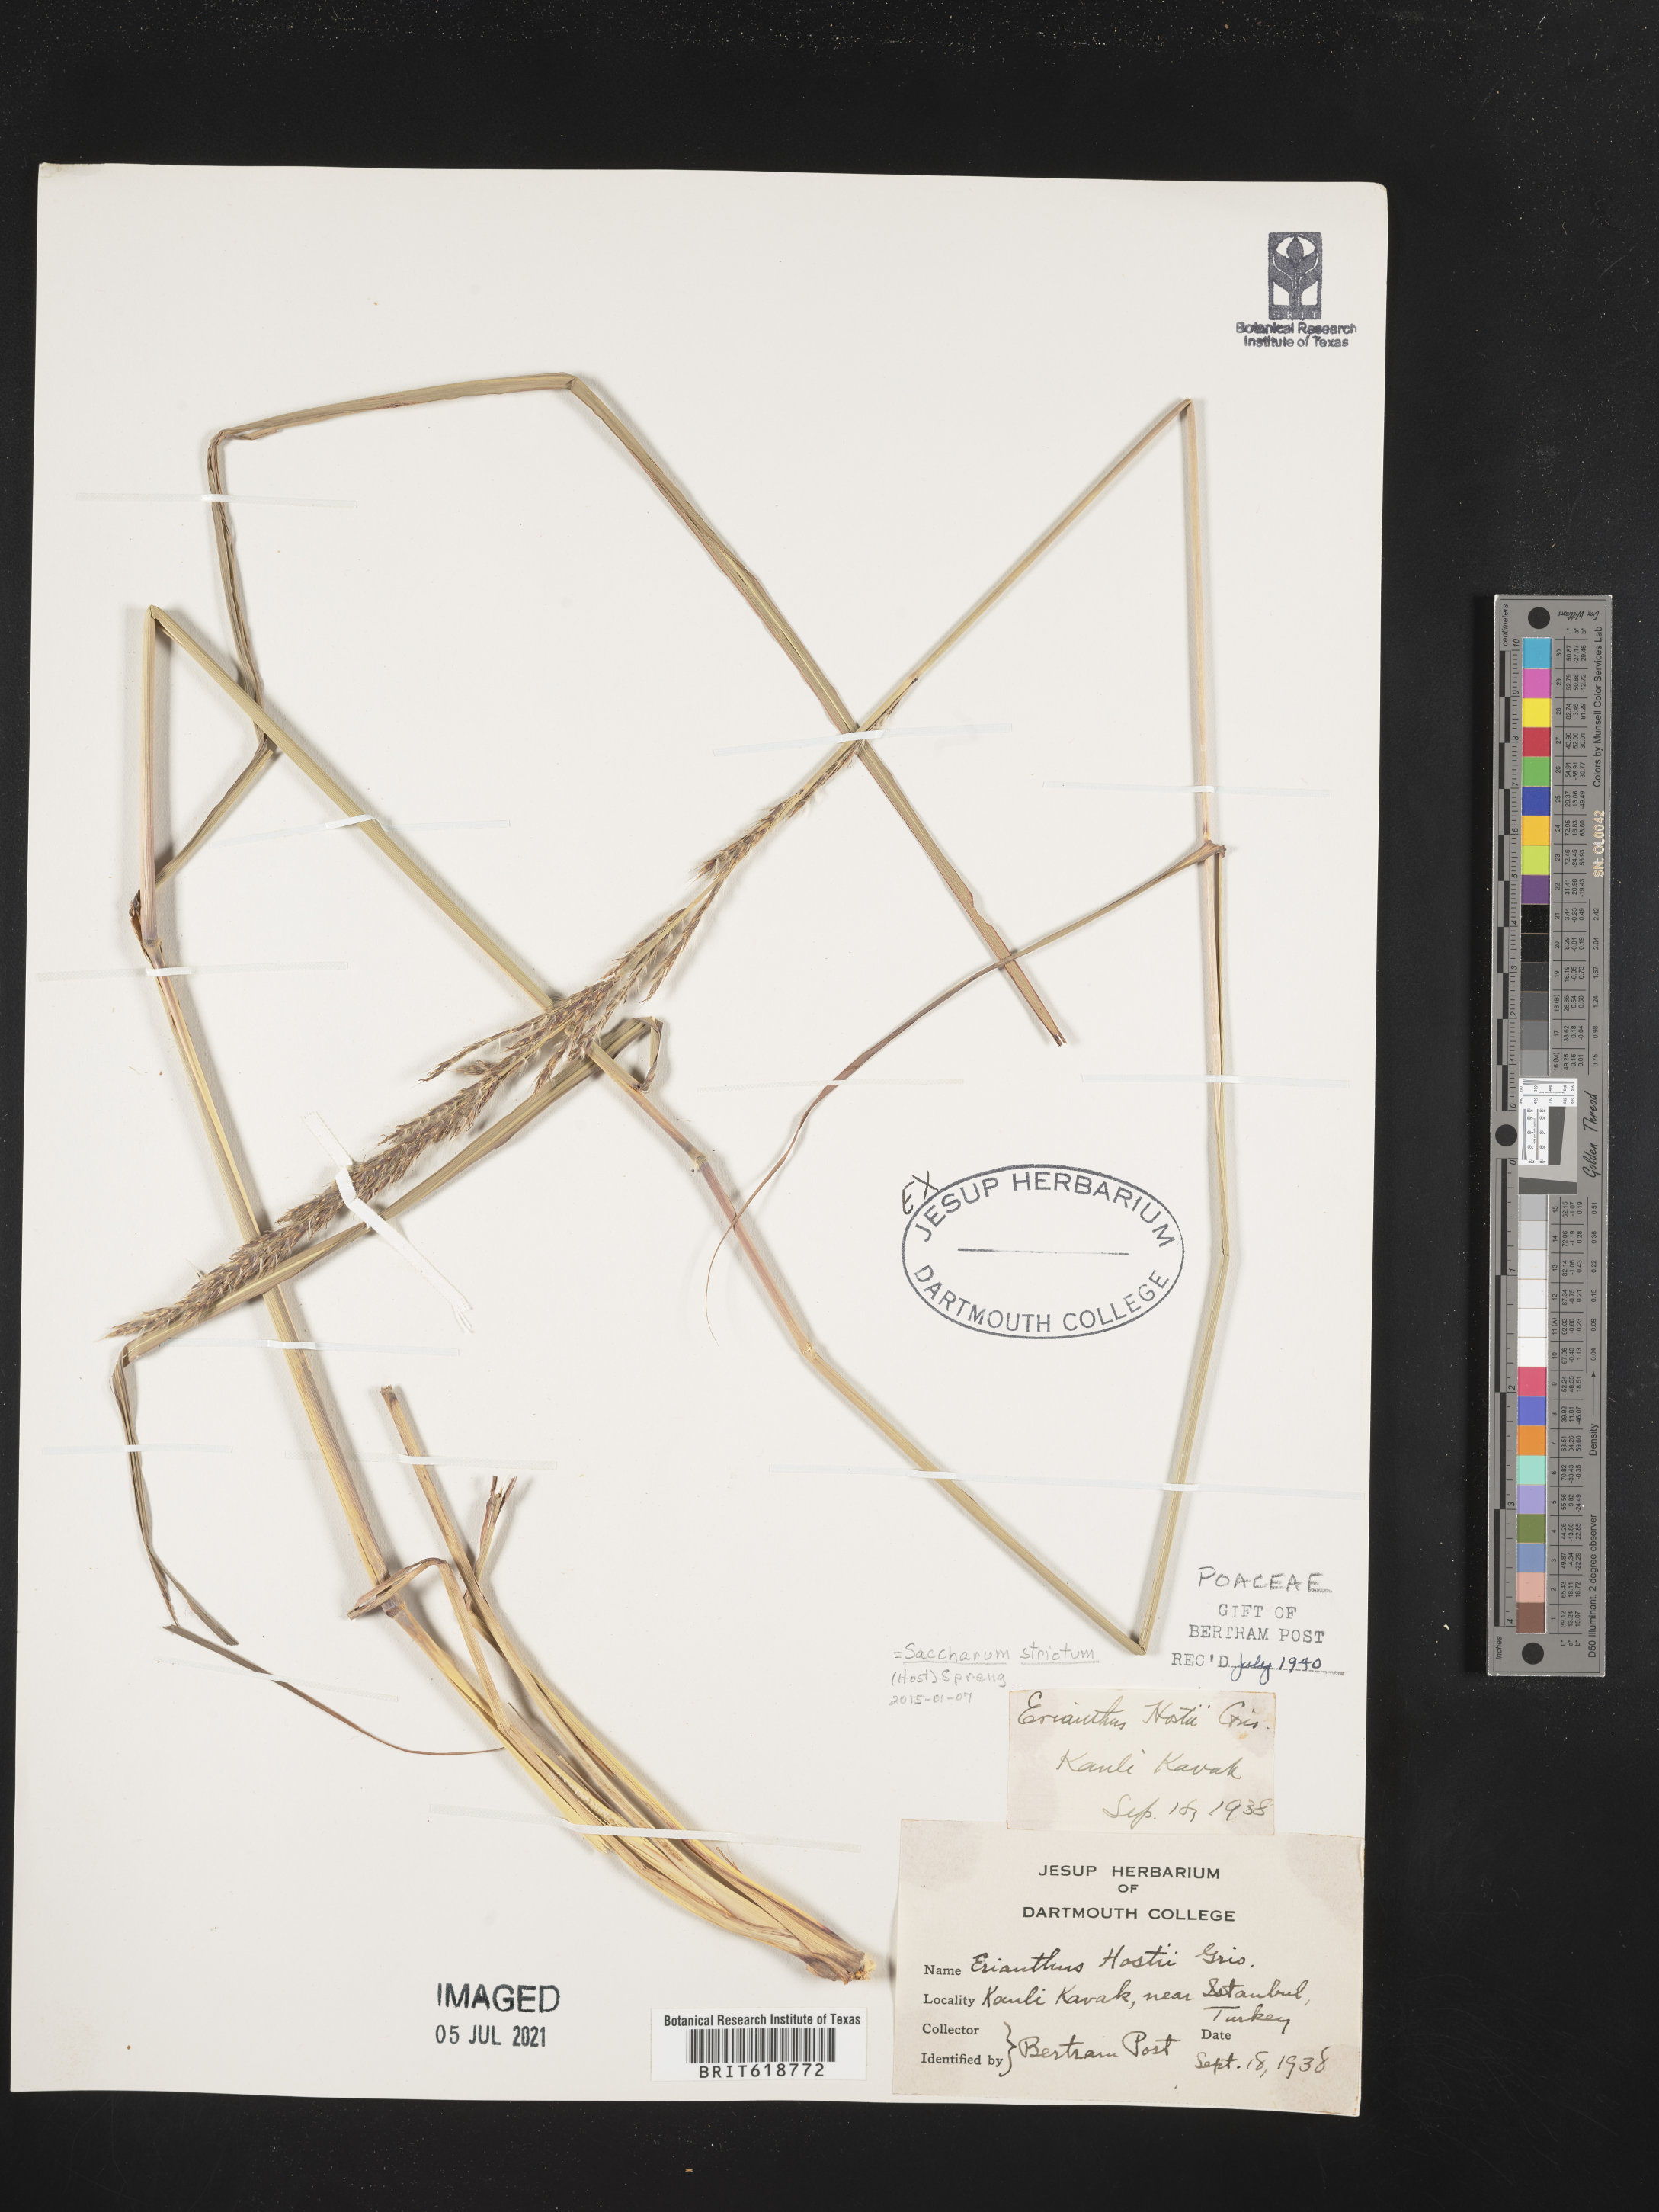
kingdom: Plantae
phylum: Tracheophyta
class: Liliopsida
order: Poales
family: Poaceae
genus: Erianthus
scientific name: Erianthus strictus
